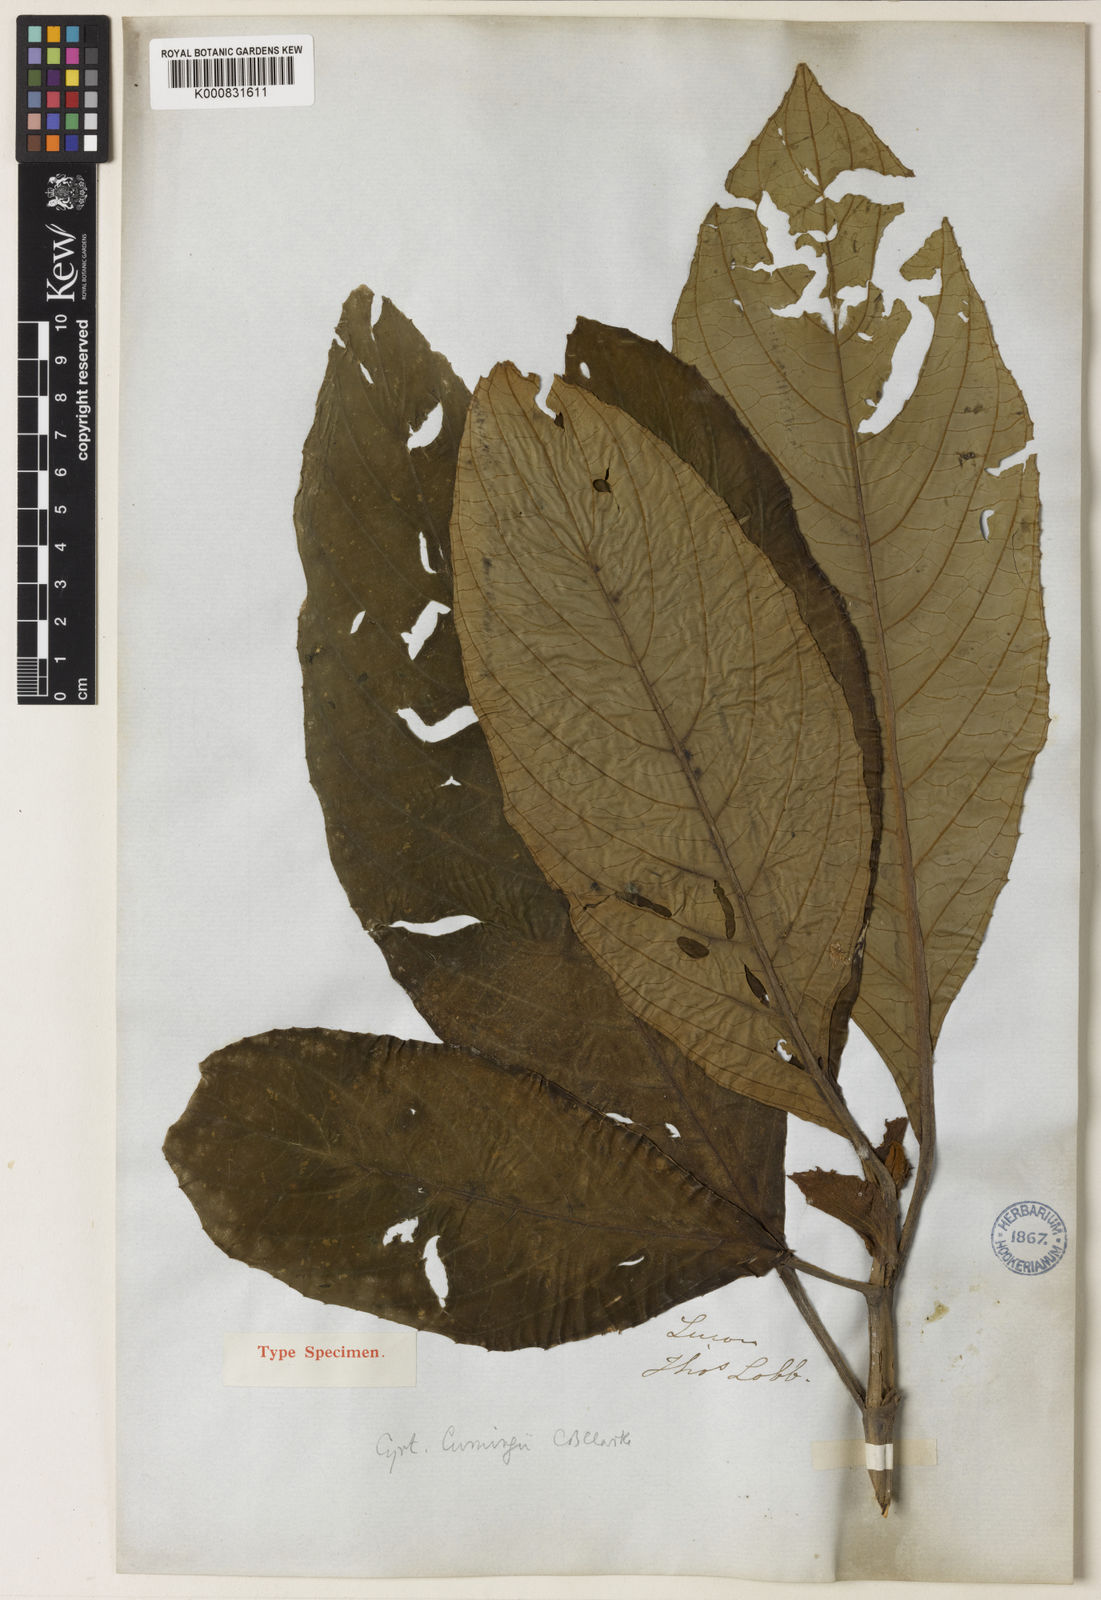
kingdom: Plantae
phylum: Tracheophyta
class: Magnoliopsida
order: Lamiales
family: Gesneriaceae
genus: Cyrtandra
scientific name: Cyrtandra cumingii
